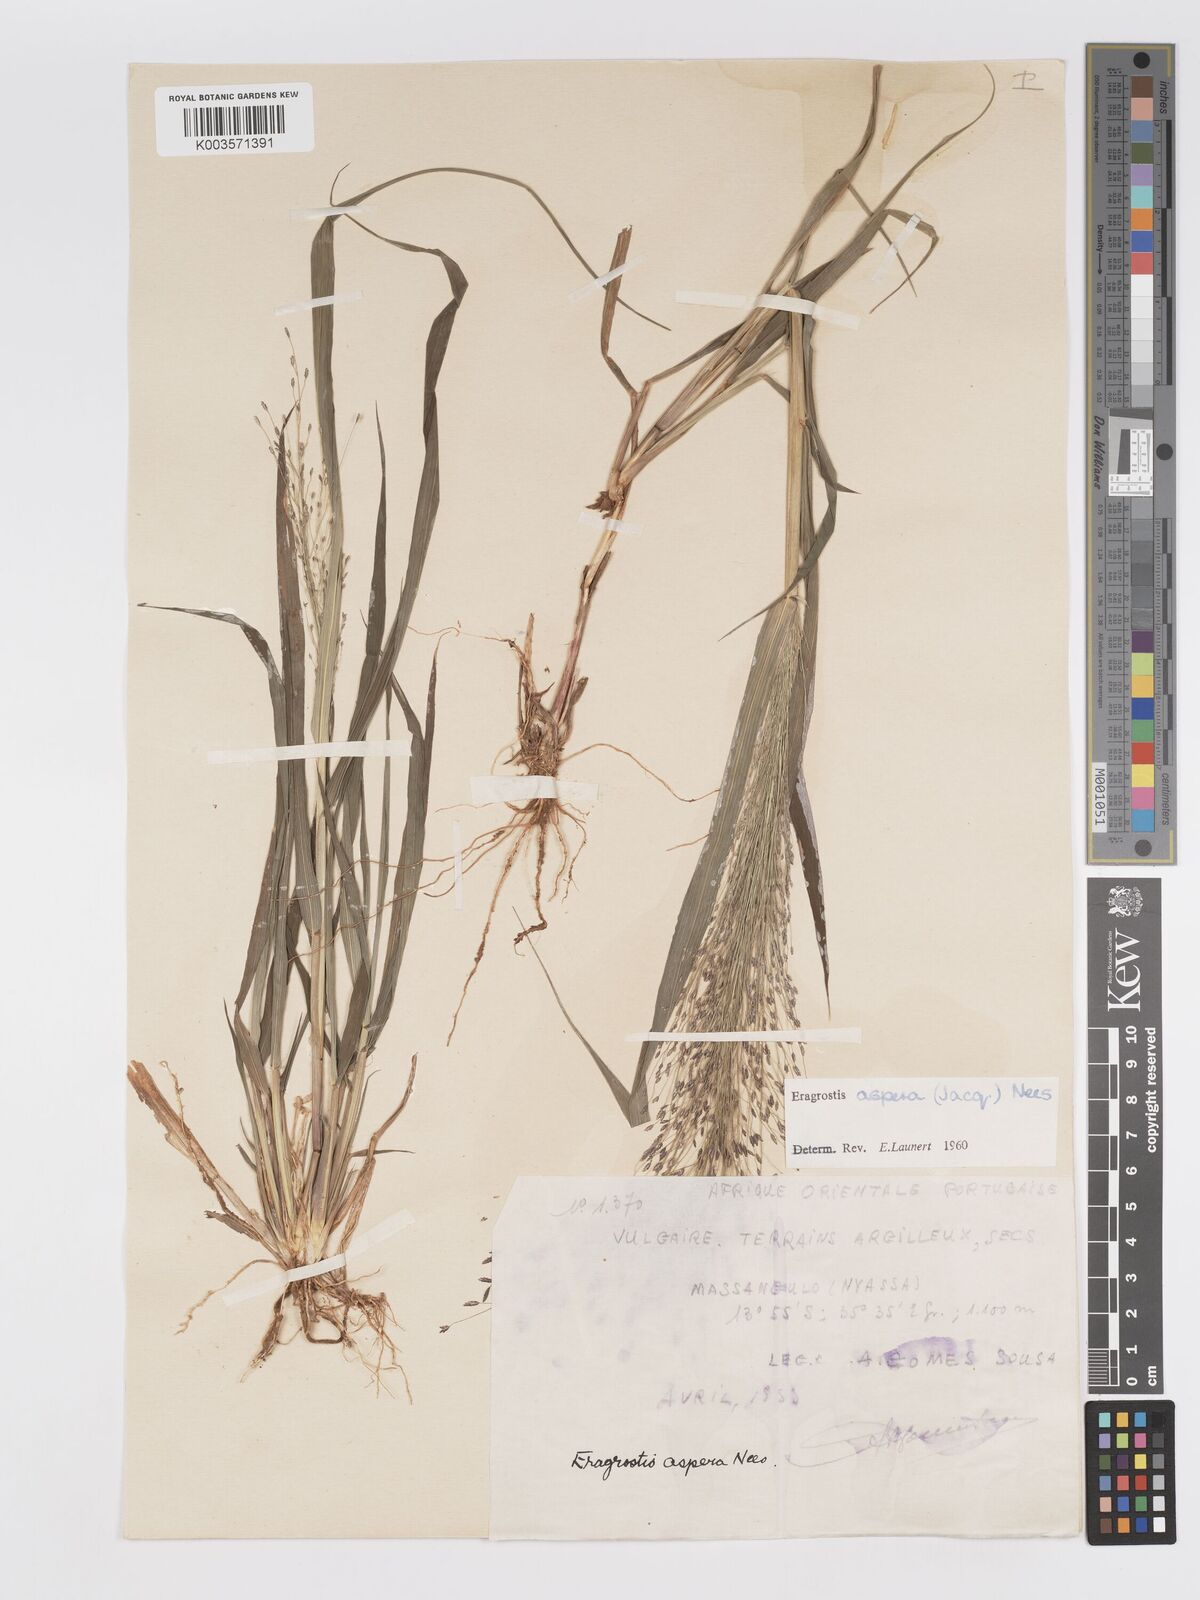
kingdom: Plantae
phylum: Tracheophyta
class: Liliopsida
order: Poales
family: Poaceae
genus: Eragrostis
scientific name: Eragrostis aspera
